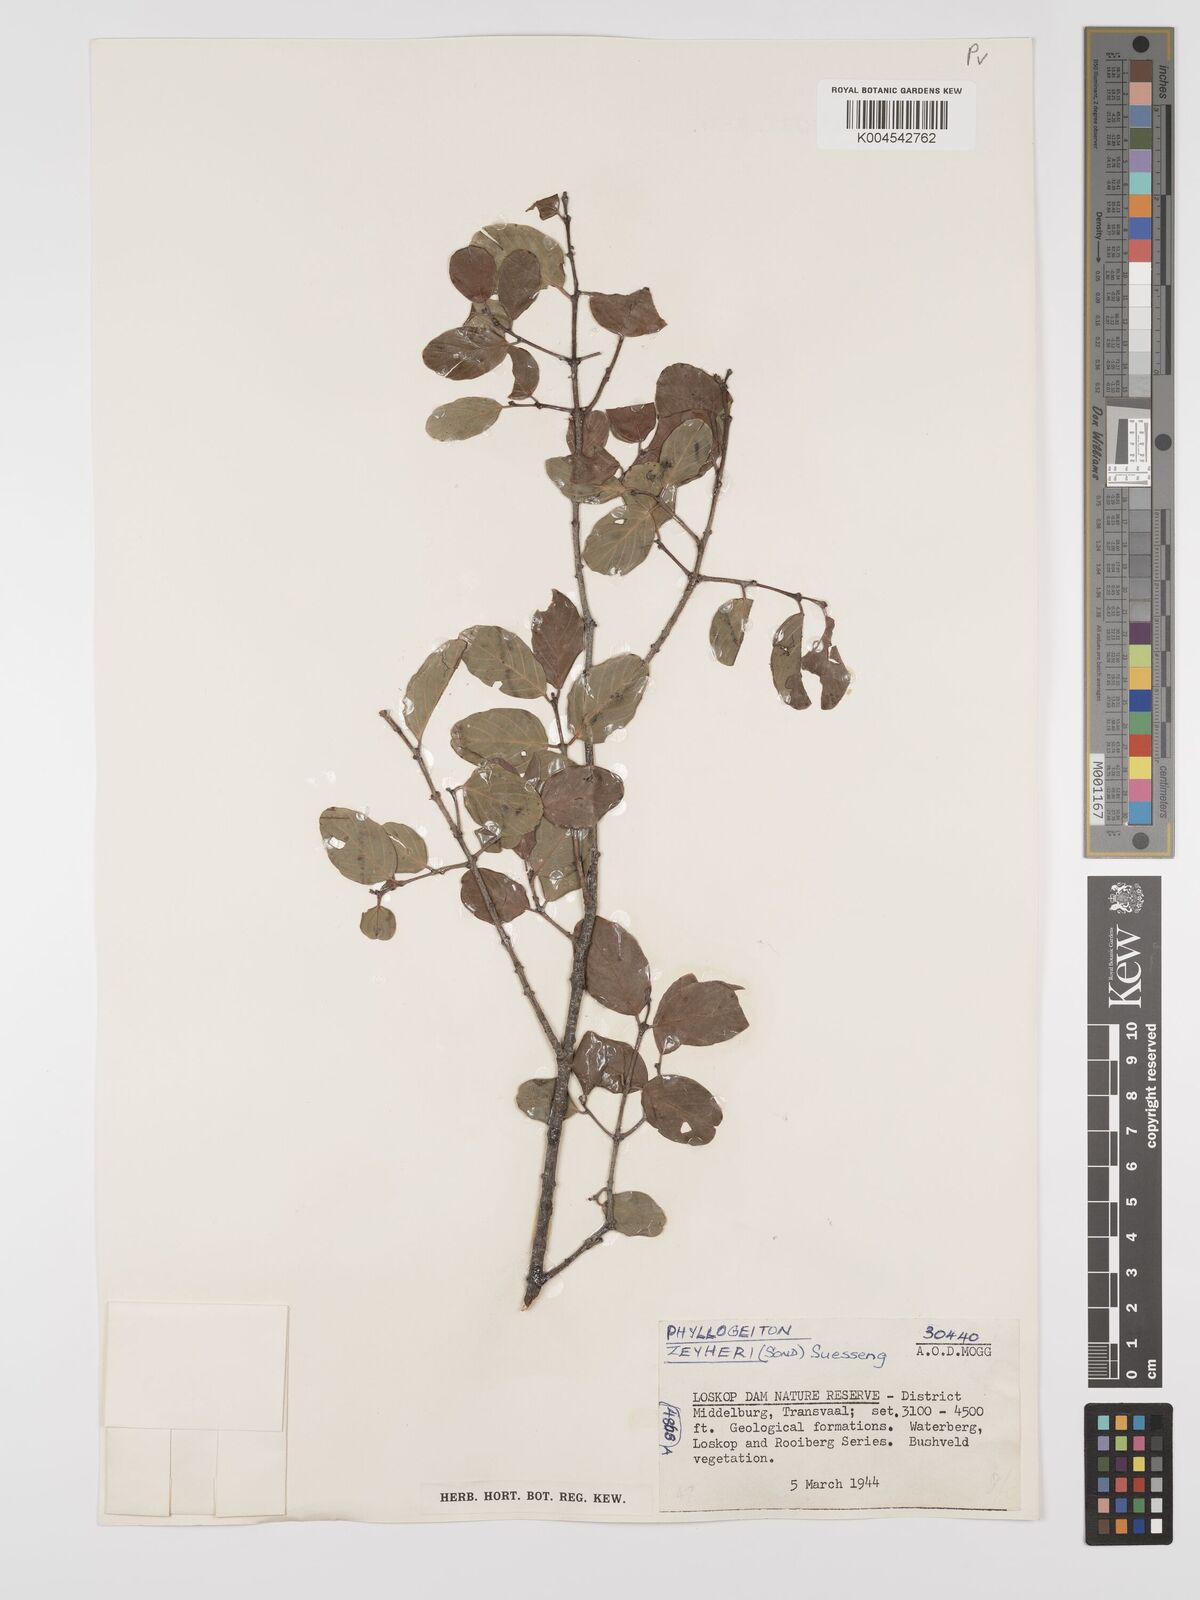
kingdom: Plantae
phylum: Tracheophyta
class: Magnoliopsida
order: Rosales
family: Rhamnaceae
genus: Phyllogeiton
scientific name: Phyllogeiton zeyheri
